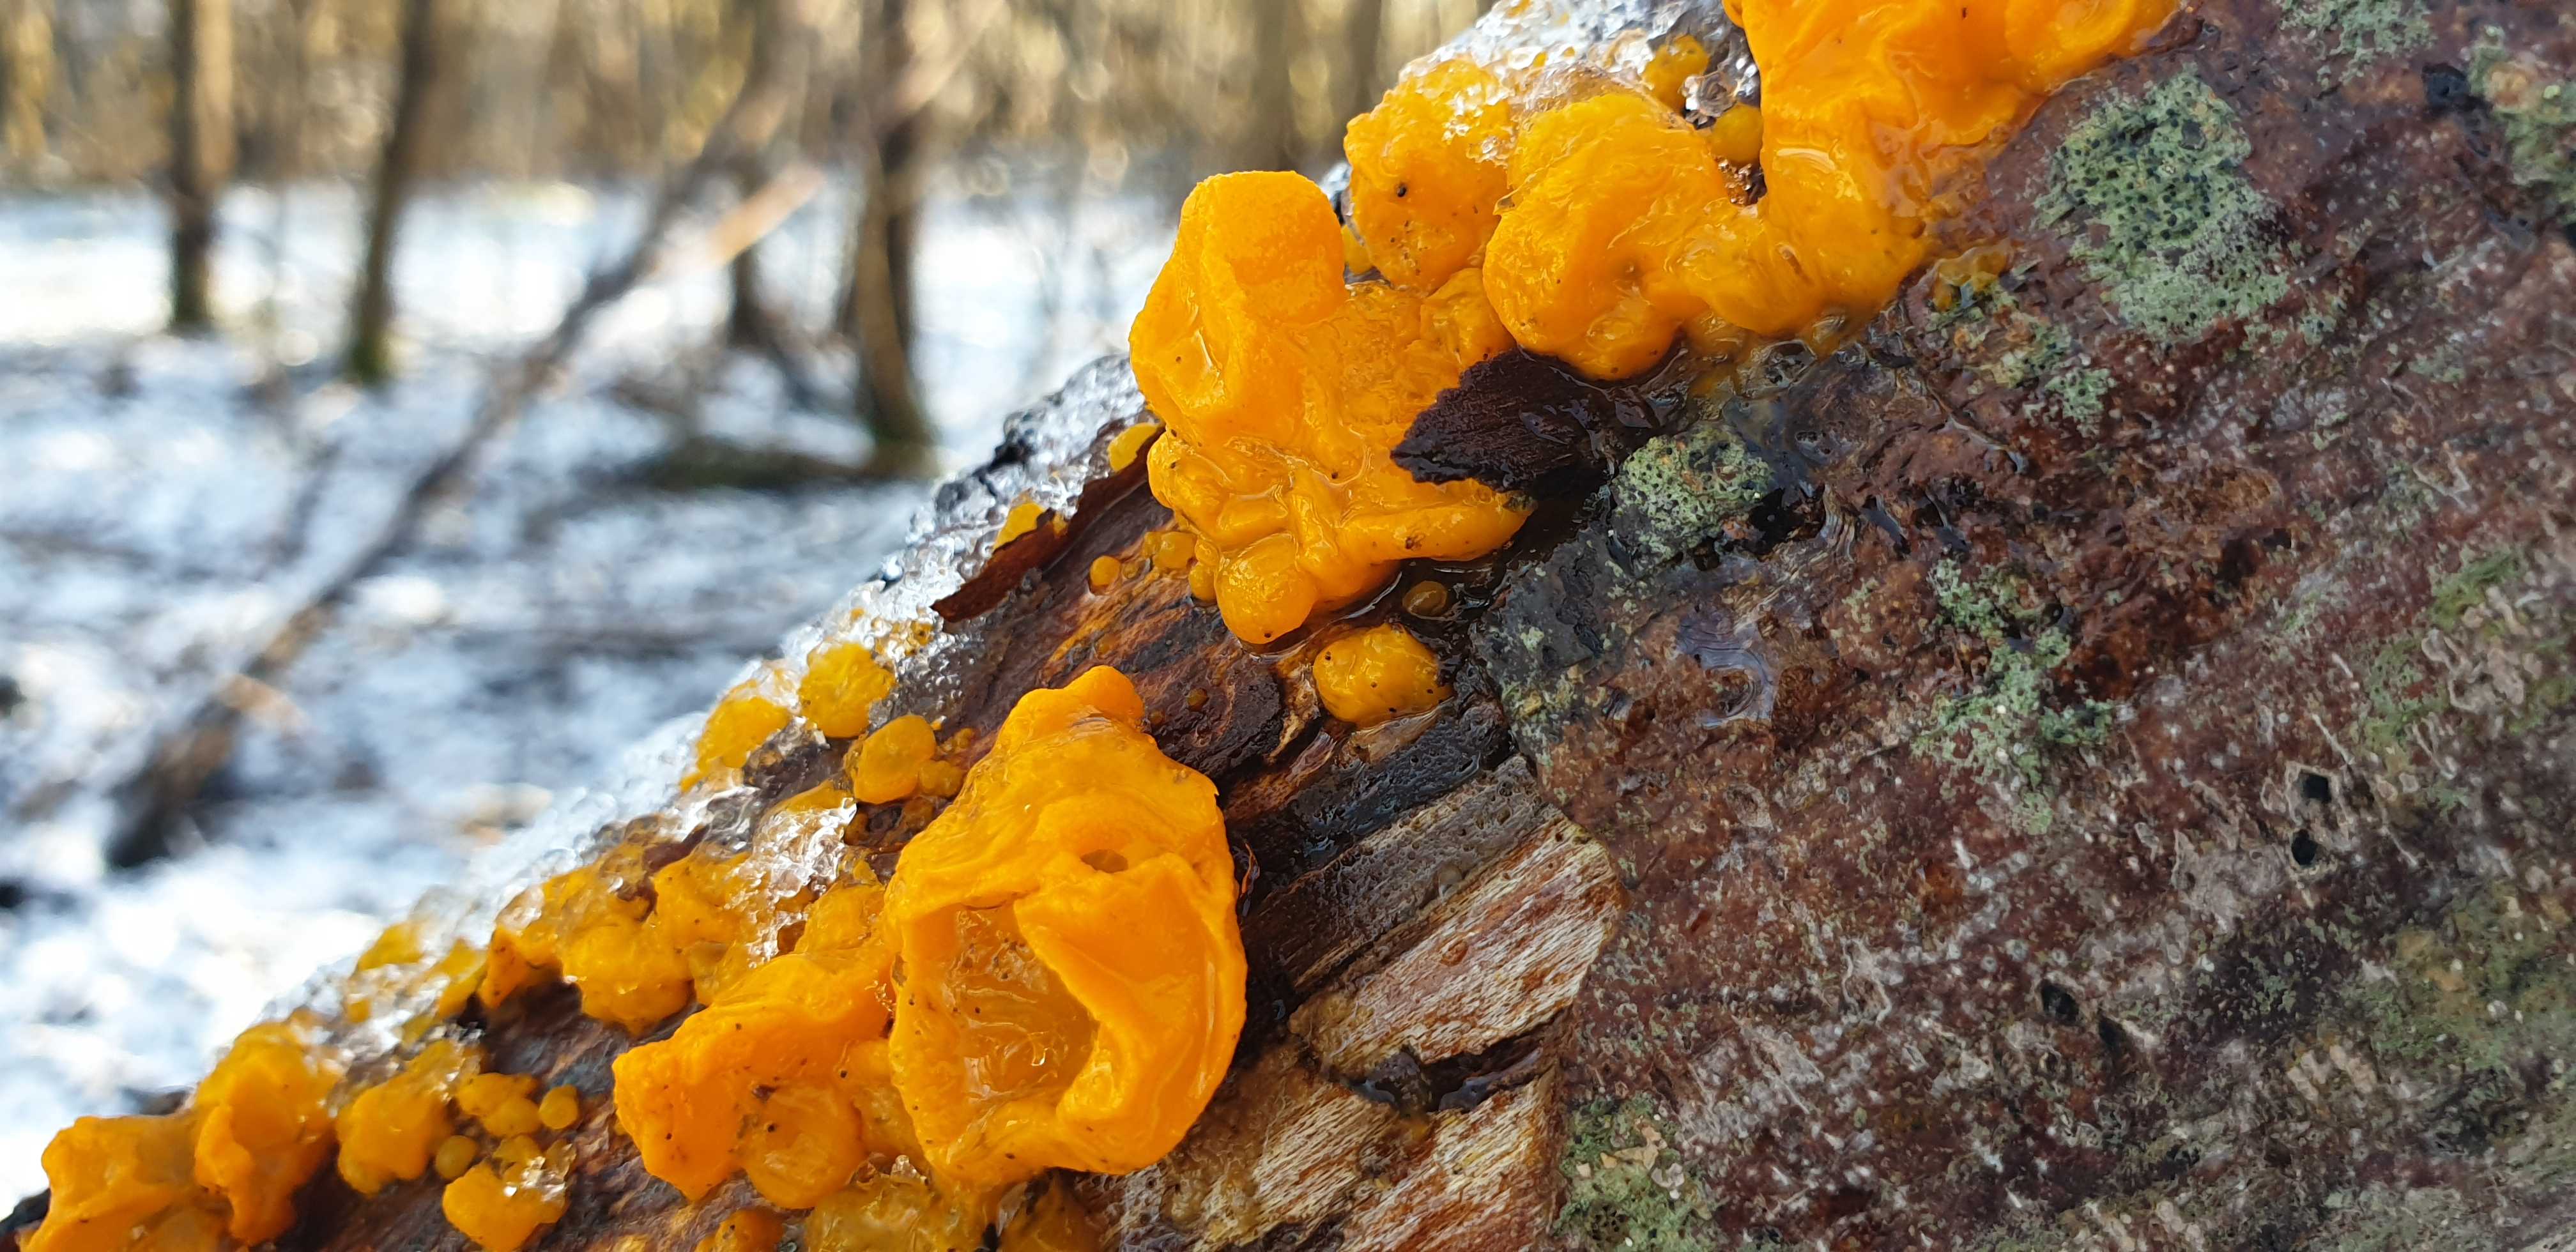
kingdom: Fungi
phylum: Basidiomycota
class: Tremellomycetes
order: Tremellales
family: Tremellaceae
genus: Tremella
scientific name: Tremella mesenterica
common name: gul bævresvamp
